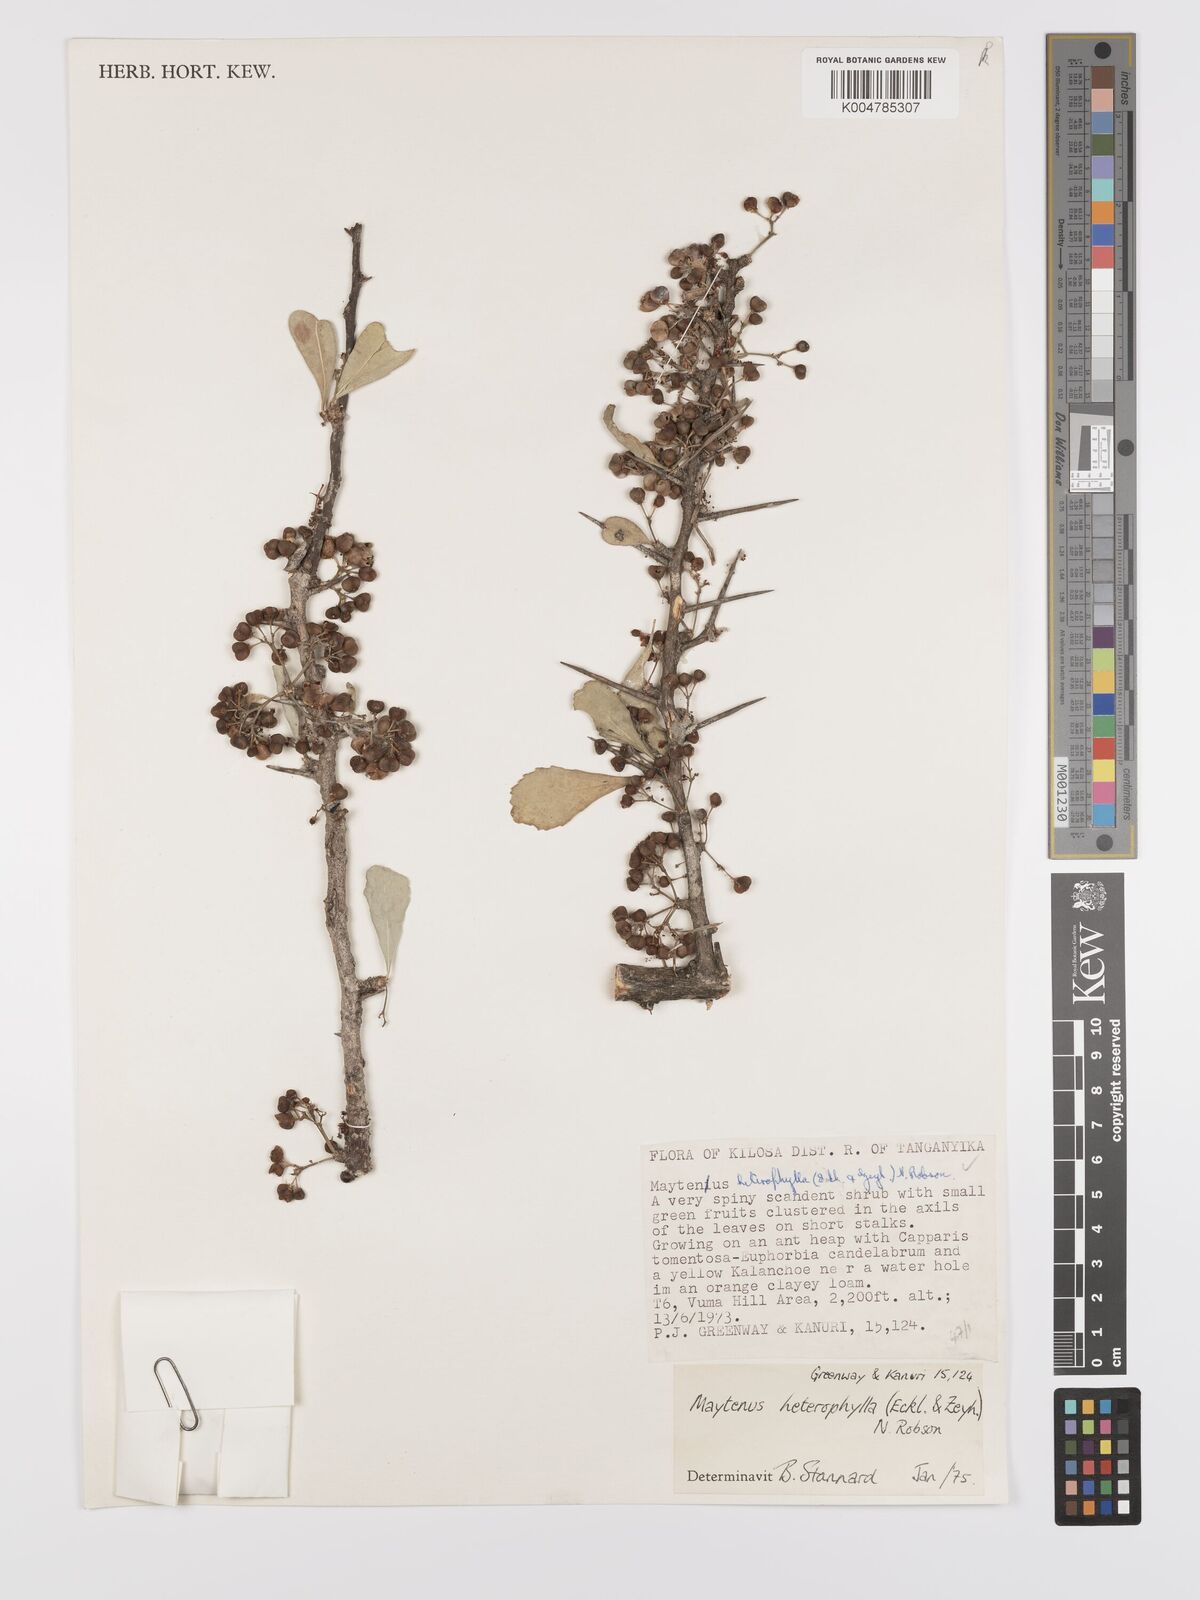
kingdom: Plantae
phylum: Tracheophyta
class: Magnoliopsida
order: Celastrales
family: Celastraceae
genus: Gymnosporia
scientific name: Gymnosporia heterophylla
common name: Angle-stem spikethorn
